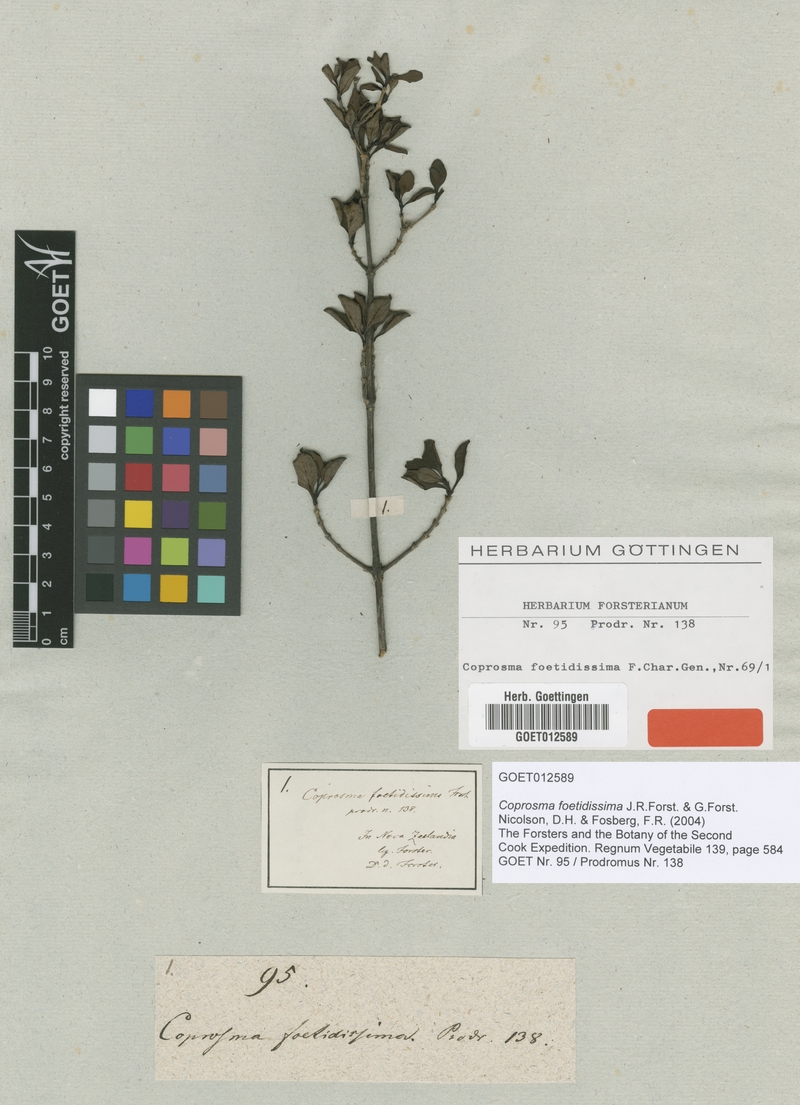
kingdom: Plantae
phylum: Tracheophyta
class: Magnoliopsida
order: Gentianales
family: Rubiaceae
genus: Coprosma
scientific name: Coprosma foetidissima
